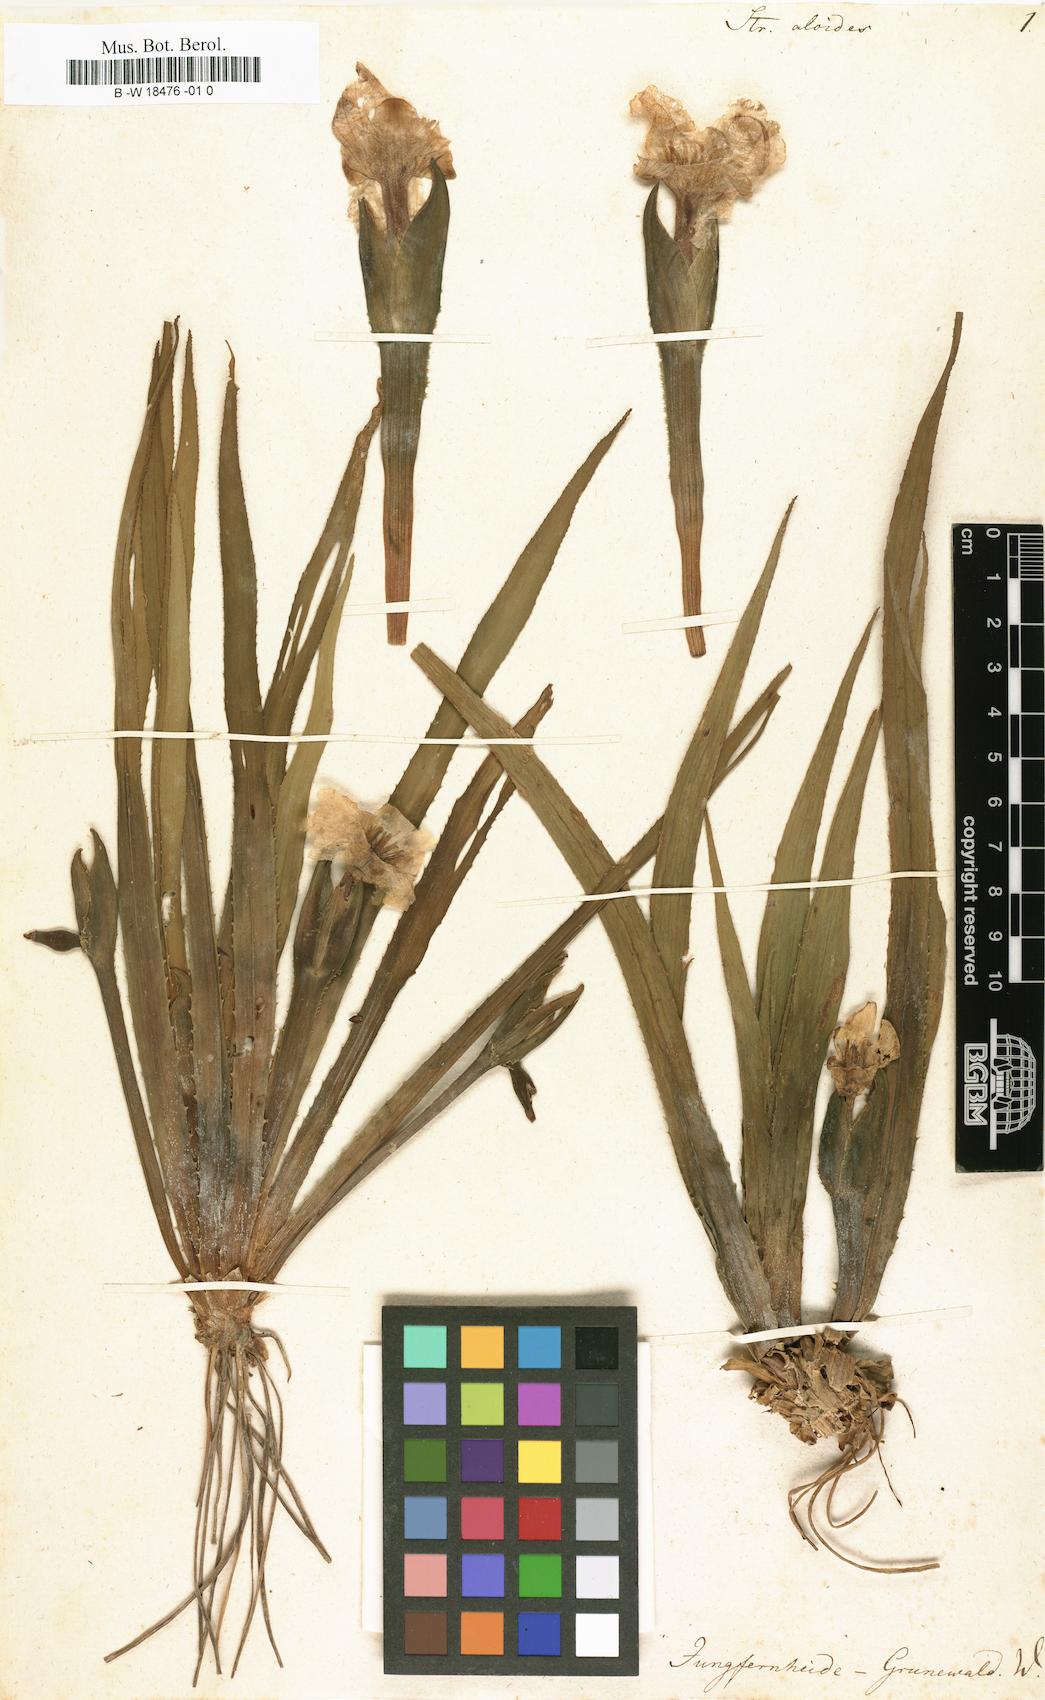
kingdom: Plantae
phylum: Tracheophyta
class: Liliopsida
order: Alismatales
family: Hydrocharitaceae
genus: Stratiotes
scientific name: Stratiotes aloides
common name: Water-soldier
